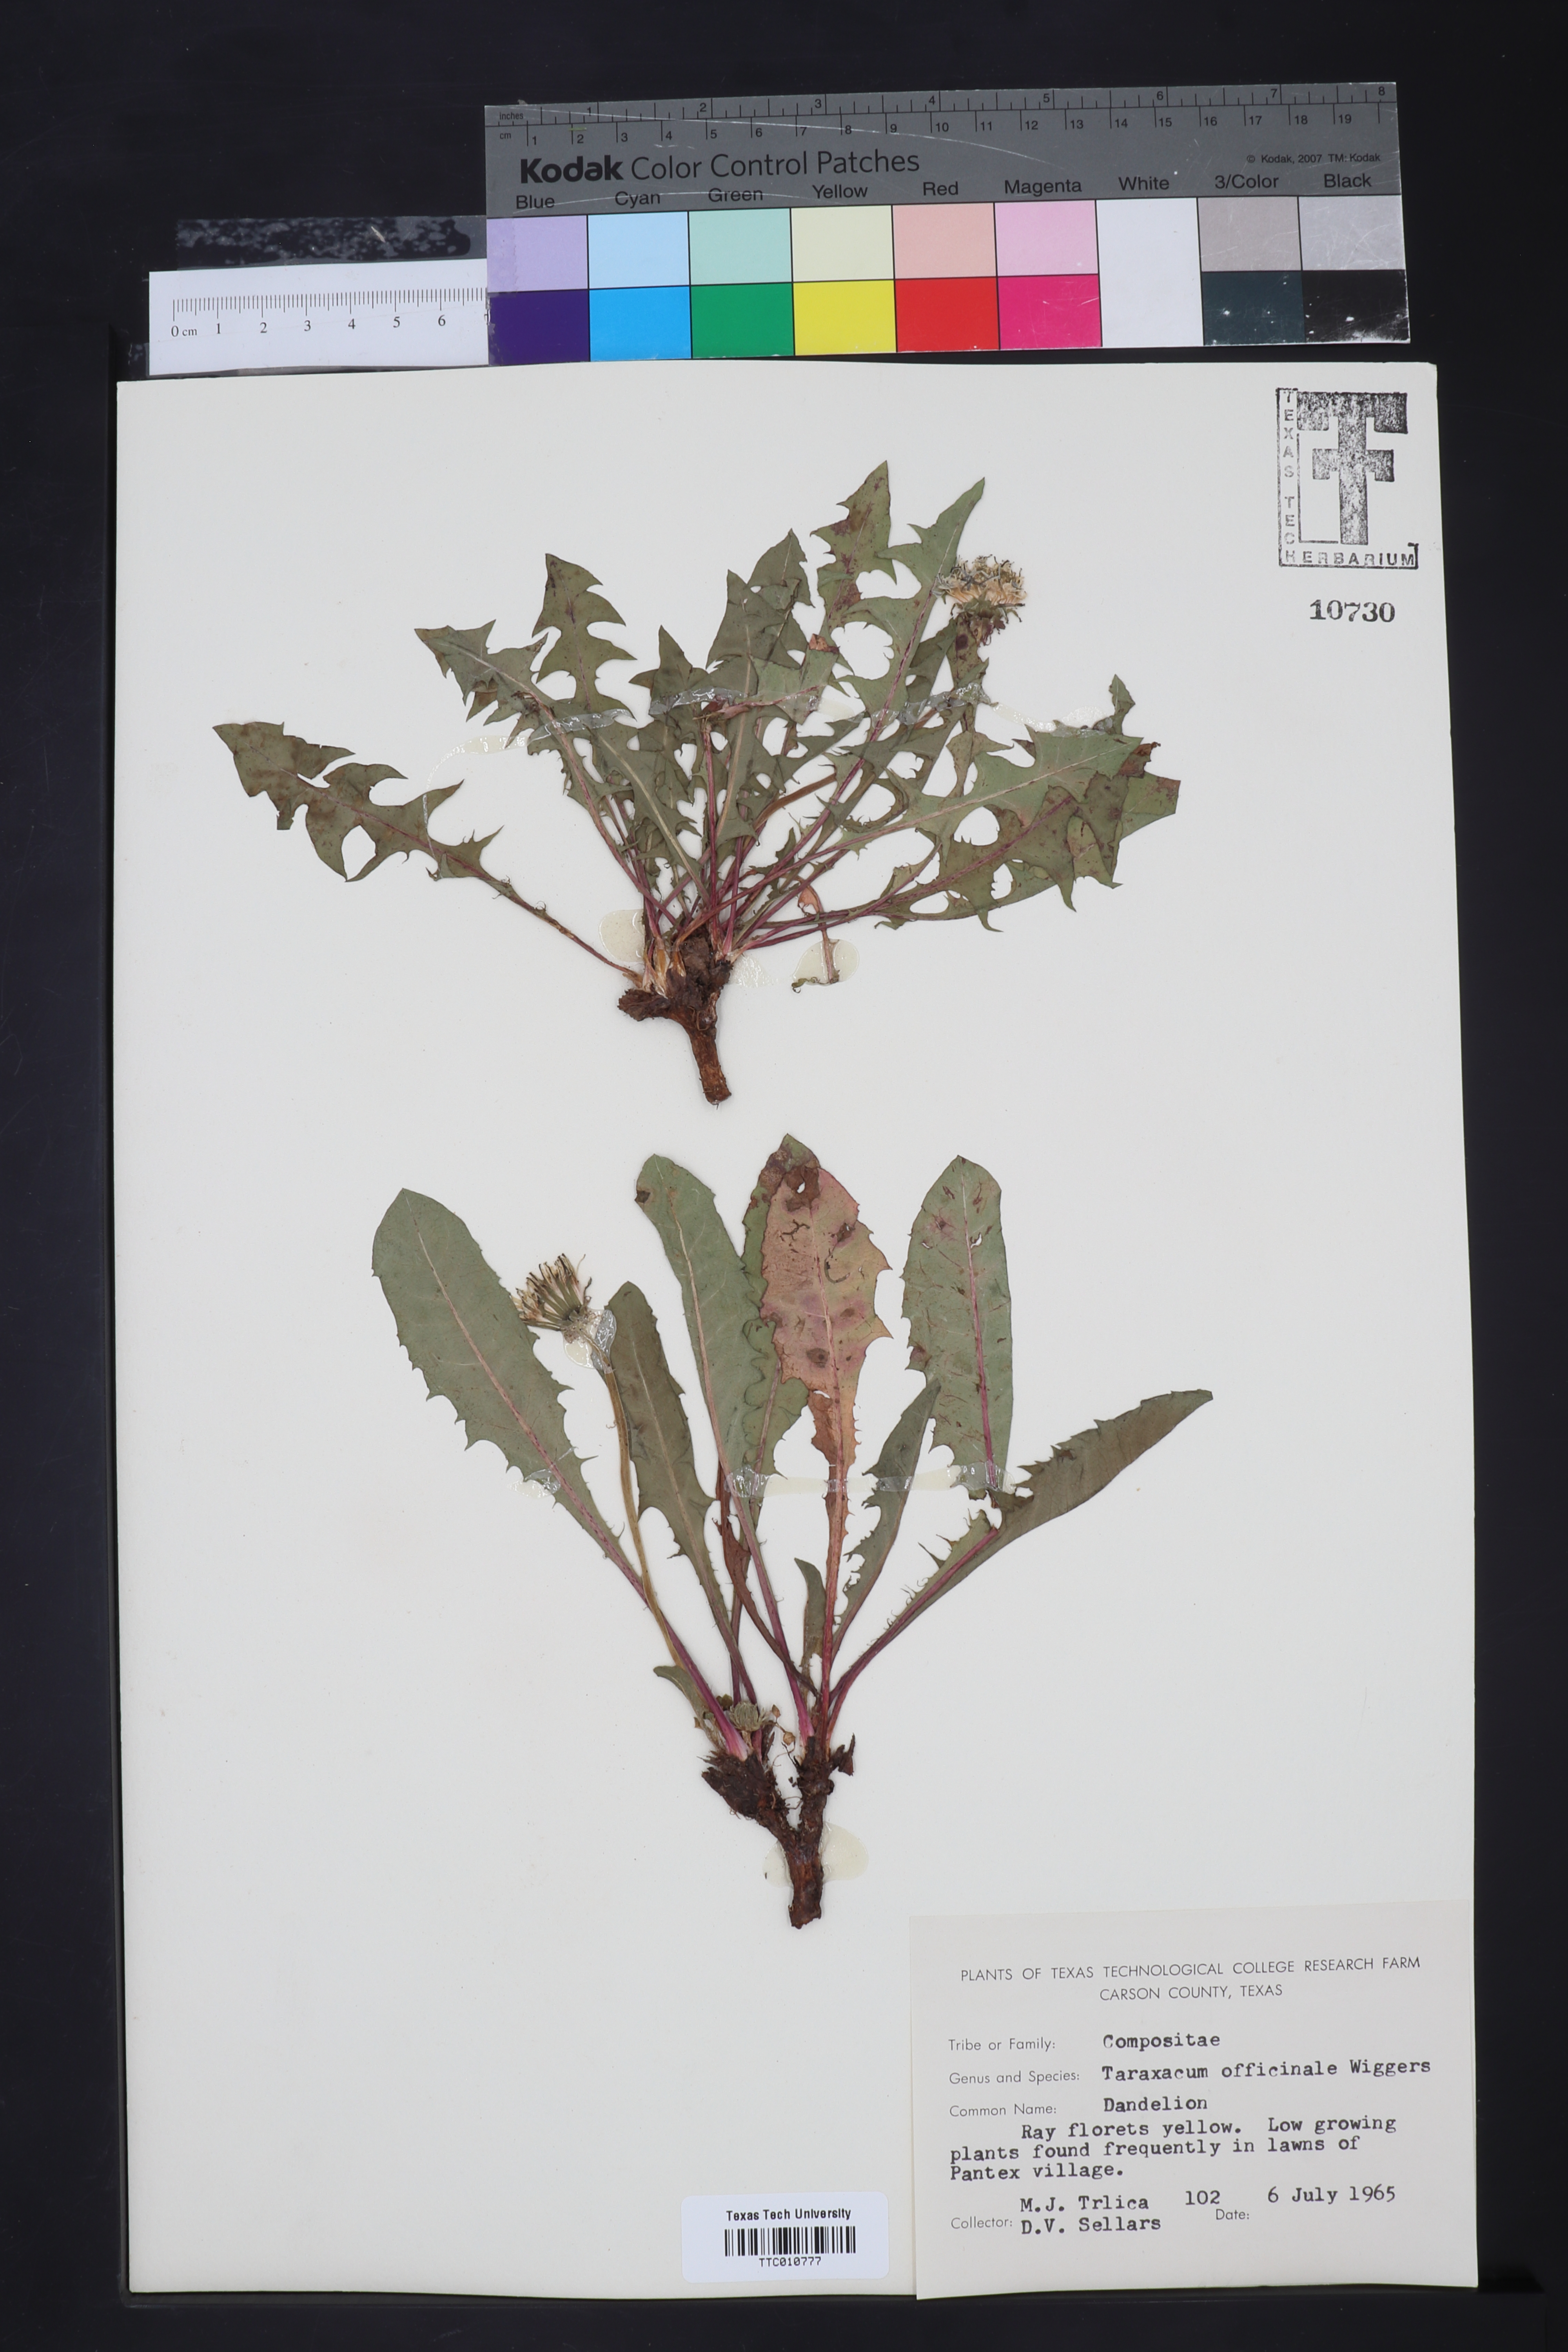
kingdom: Plantae
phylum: Tracheophyta
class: Magnoliopsida
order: Asterales
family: Asteraceae
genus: Taraxacum
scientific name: Taraxacum officinale
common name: Common dandelion
